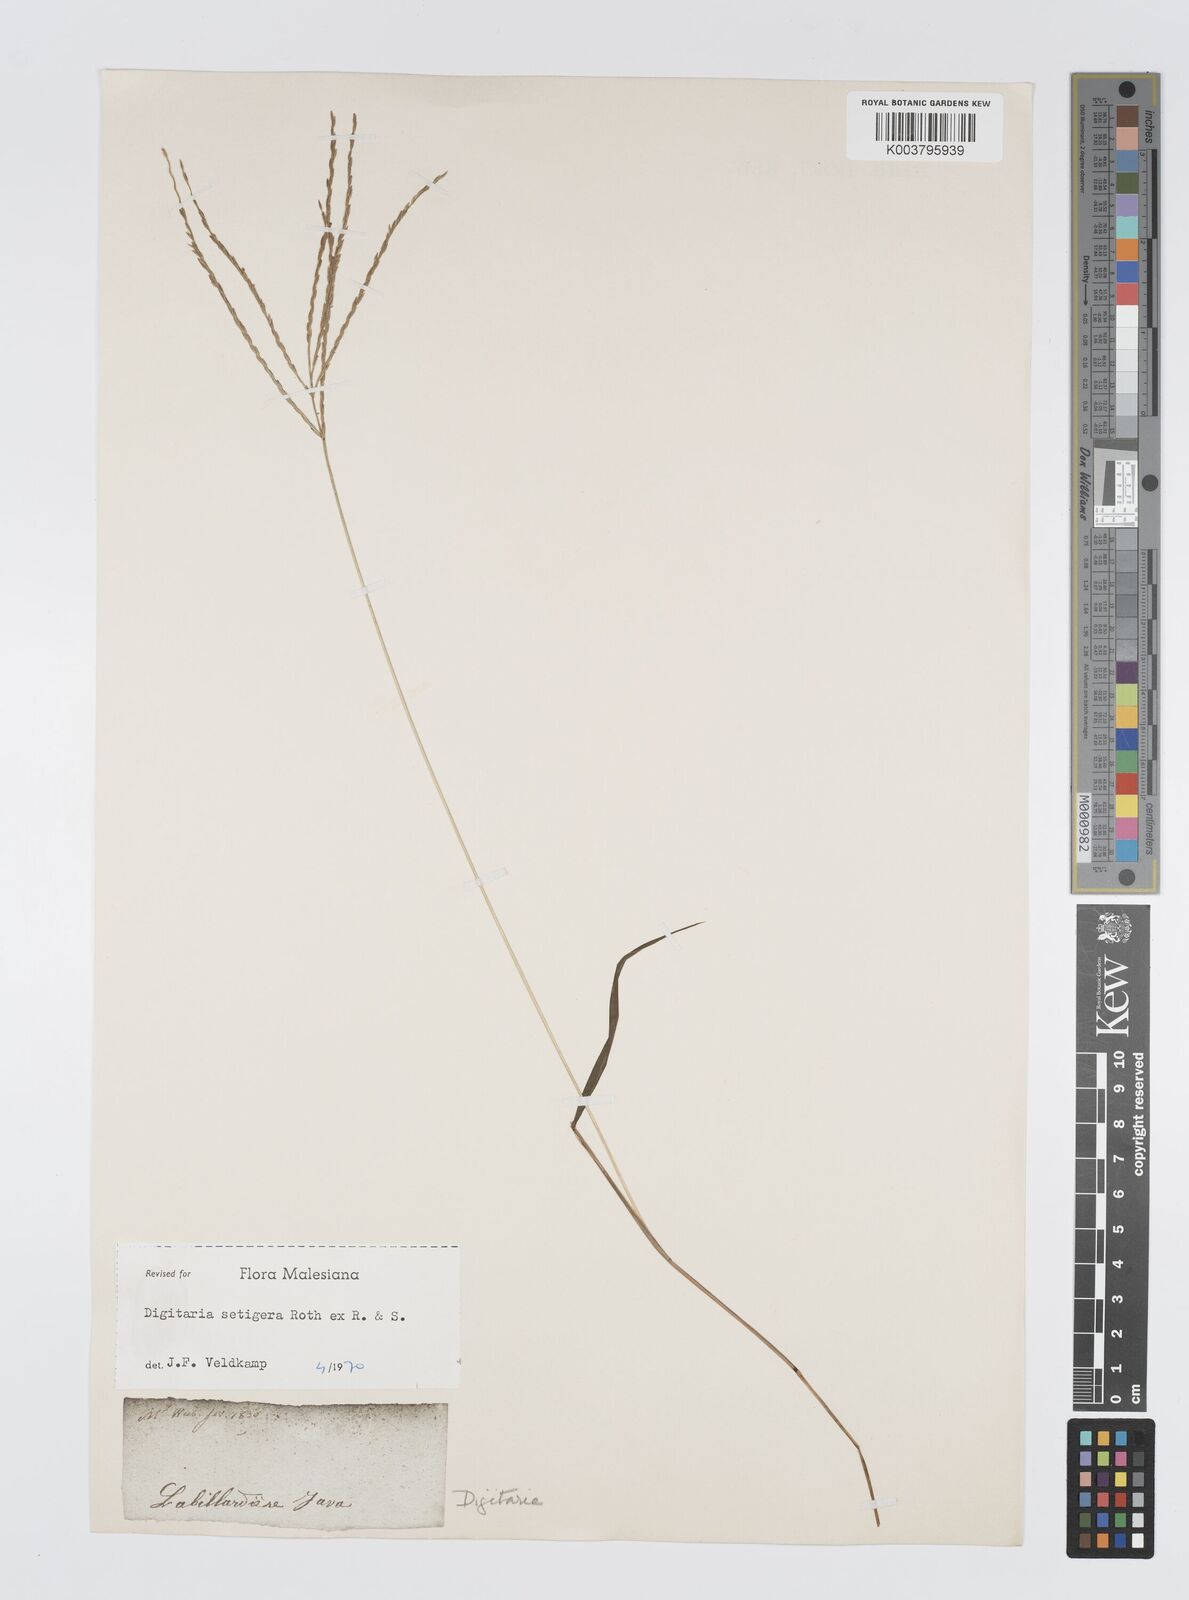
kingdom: Plantae
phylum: Tracheophyta
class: Liliopsida
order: Poales
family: Poaceae
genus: Digitaria
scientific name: Digitaria setigera
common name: East indian crabgrass
